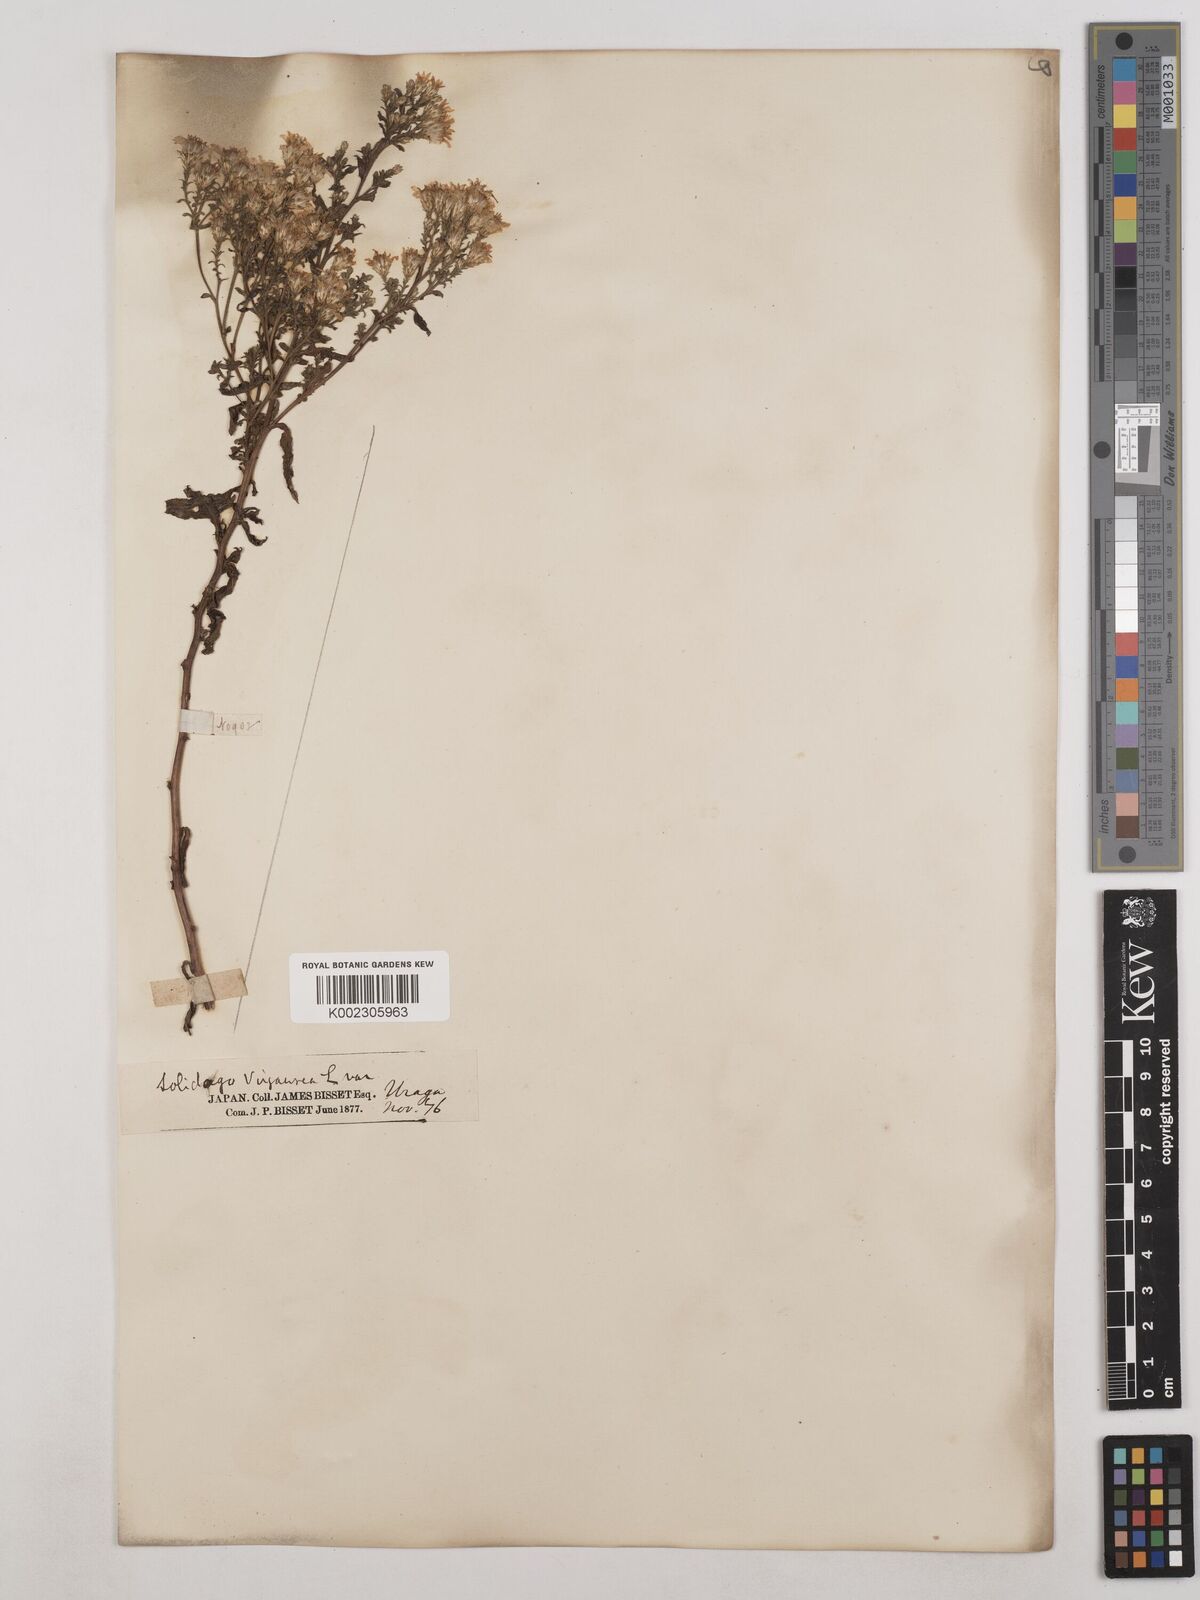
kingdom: Plantae
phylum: Tracheophyta
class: Magnoliopsida
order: Asterales
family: Asteraceae
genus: Solidago
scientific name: Solidago virgaurea
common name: Goldenrod
